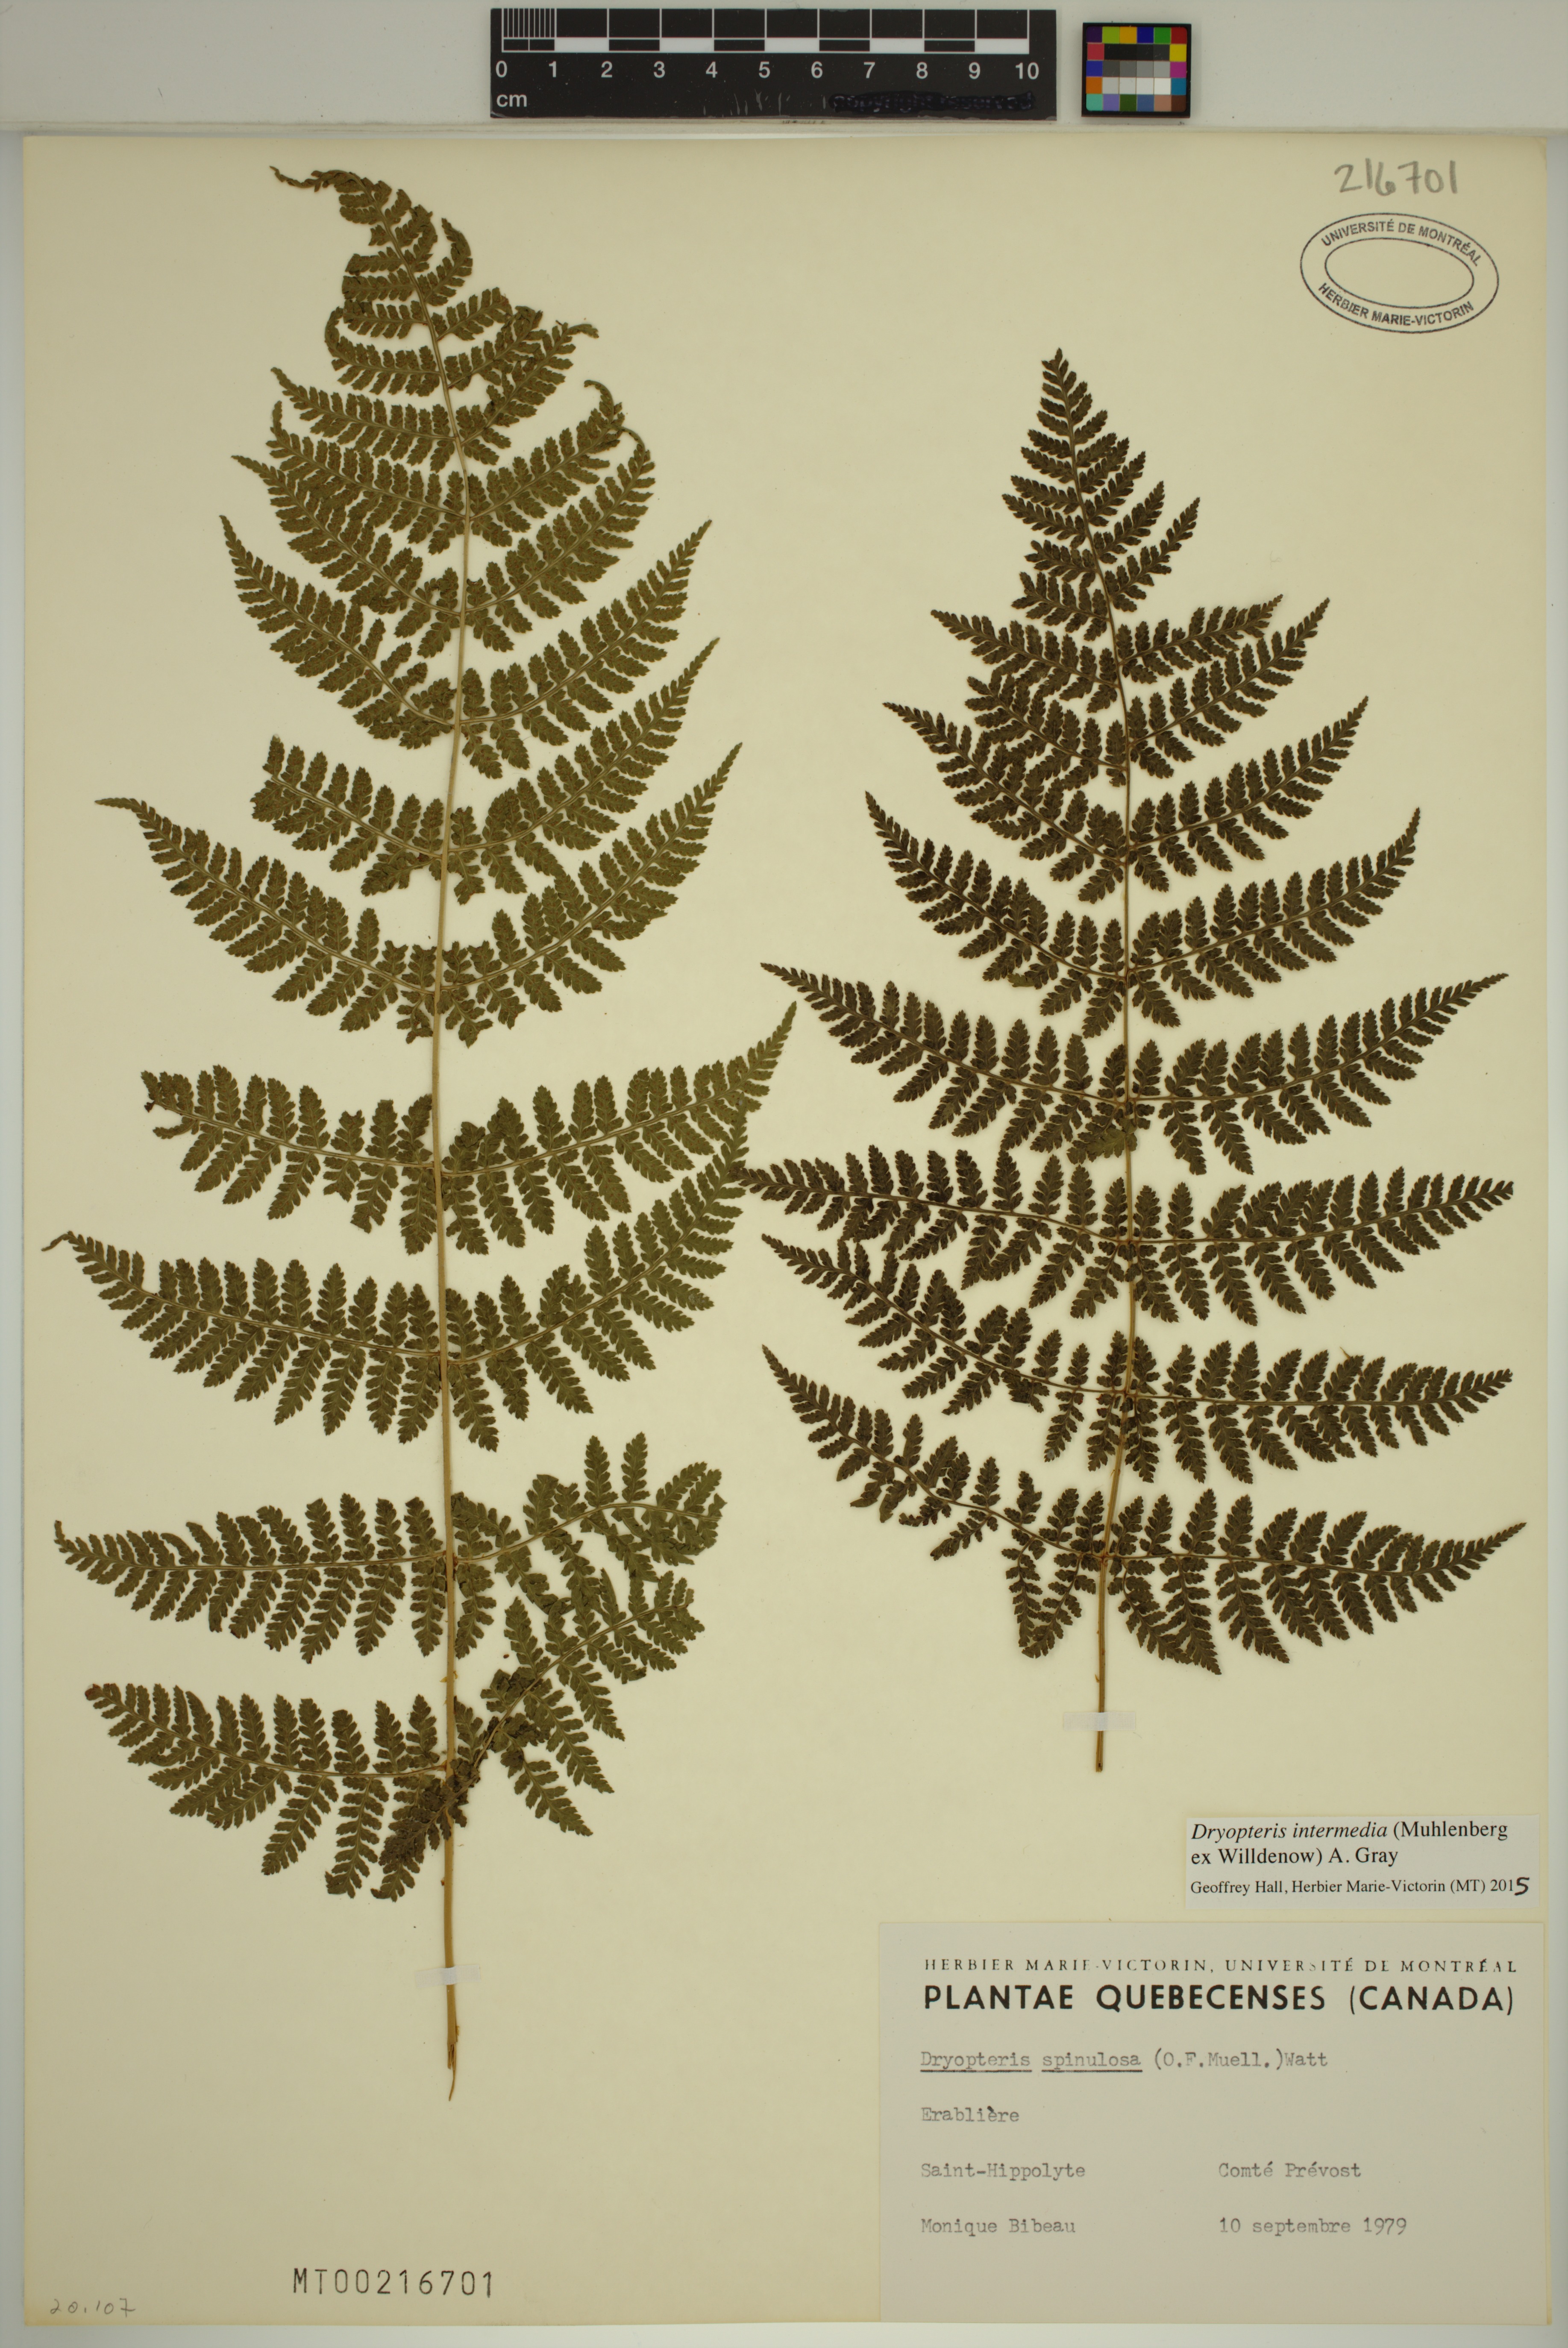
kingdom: Plantae
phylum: Tracheophyta
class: Polypodiopsida
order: Polypodiales
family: Dryopteridaceae
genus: Dryopteris
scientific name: Dryopteris intermedia
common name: Evergreen wood fern
